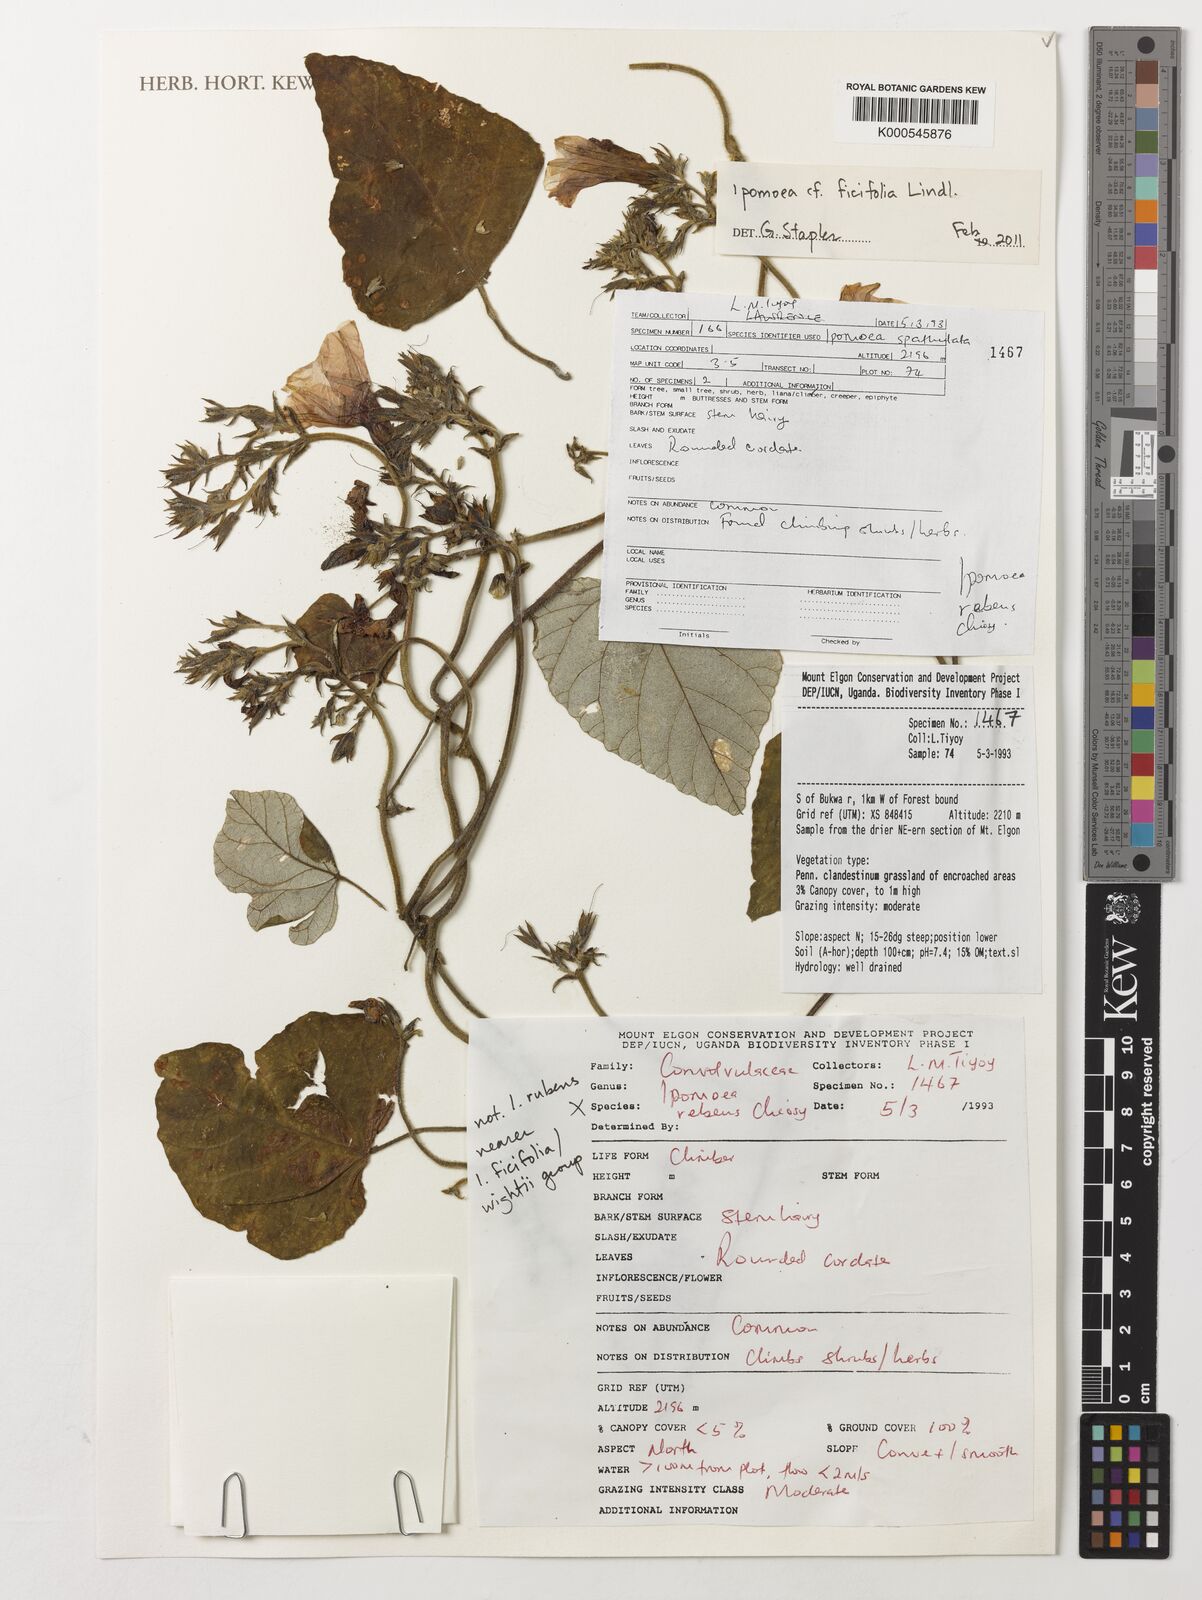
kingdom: Plantae
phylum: Tracheophyta
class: Magnoliopsida
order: Solanales
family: Convolvulaceae
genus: Ipomoea
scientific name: Ipomoea ficifolia
